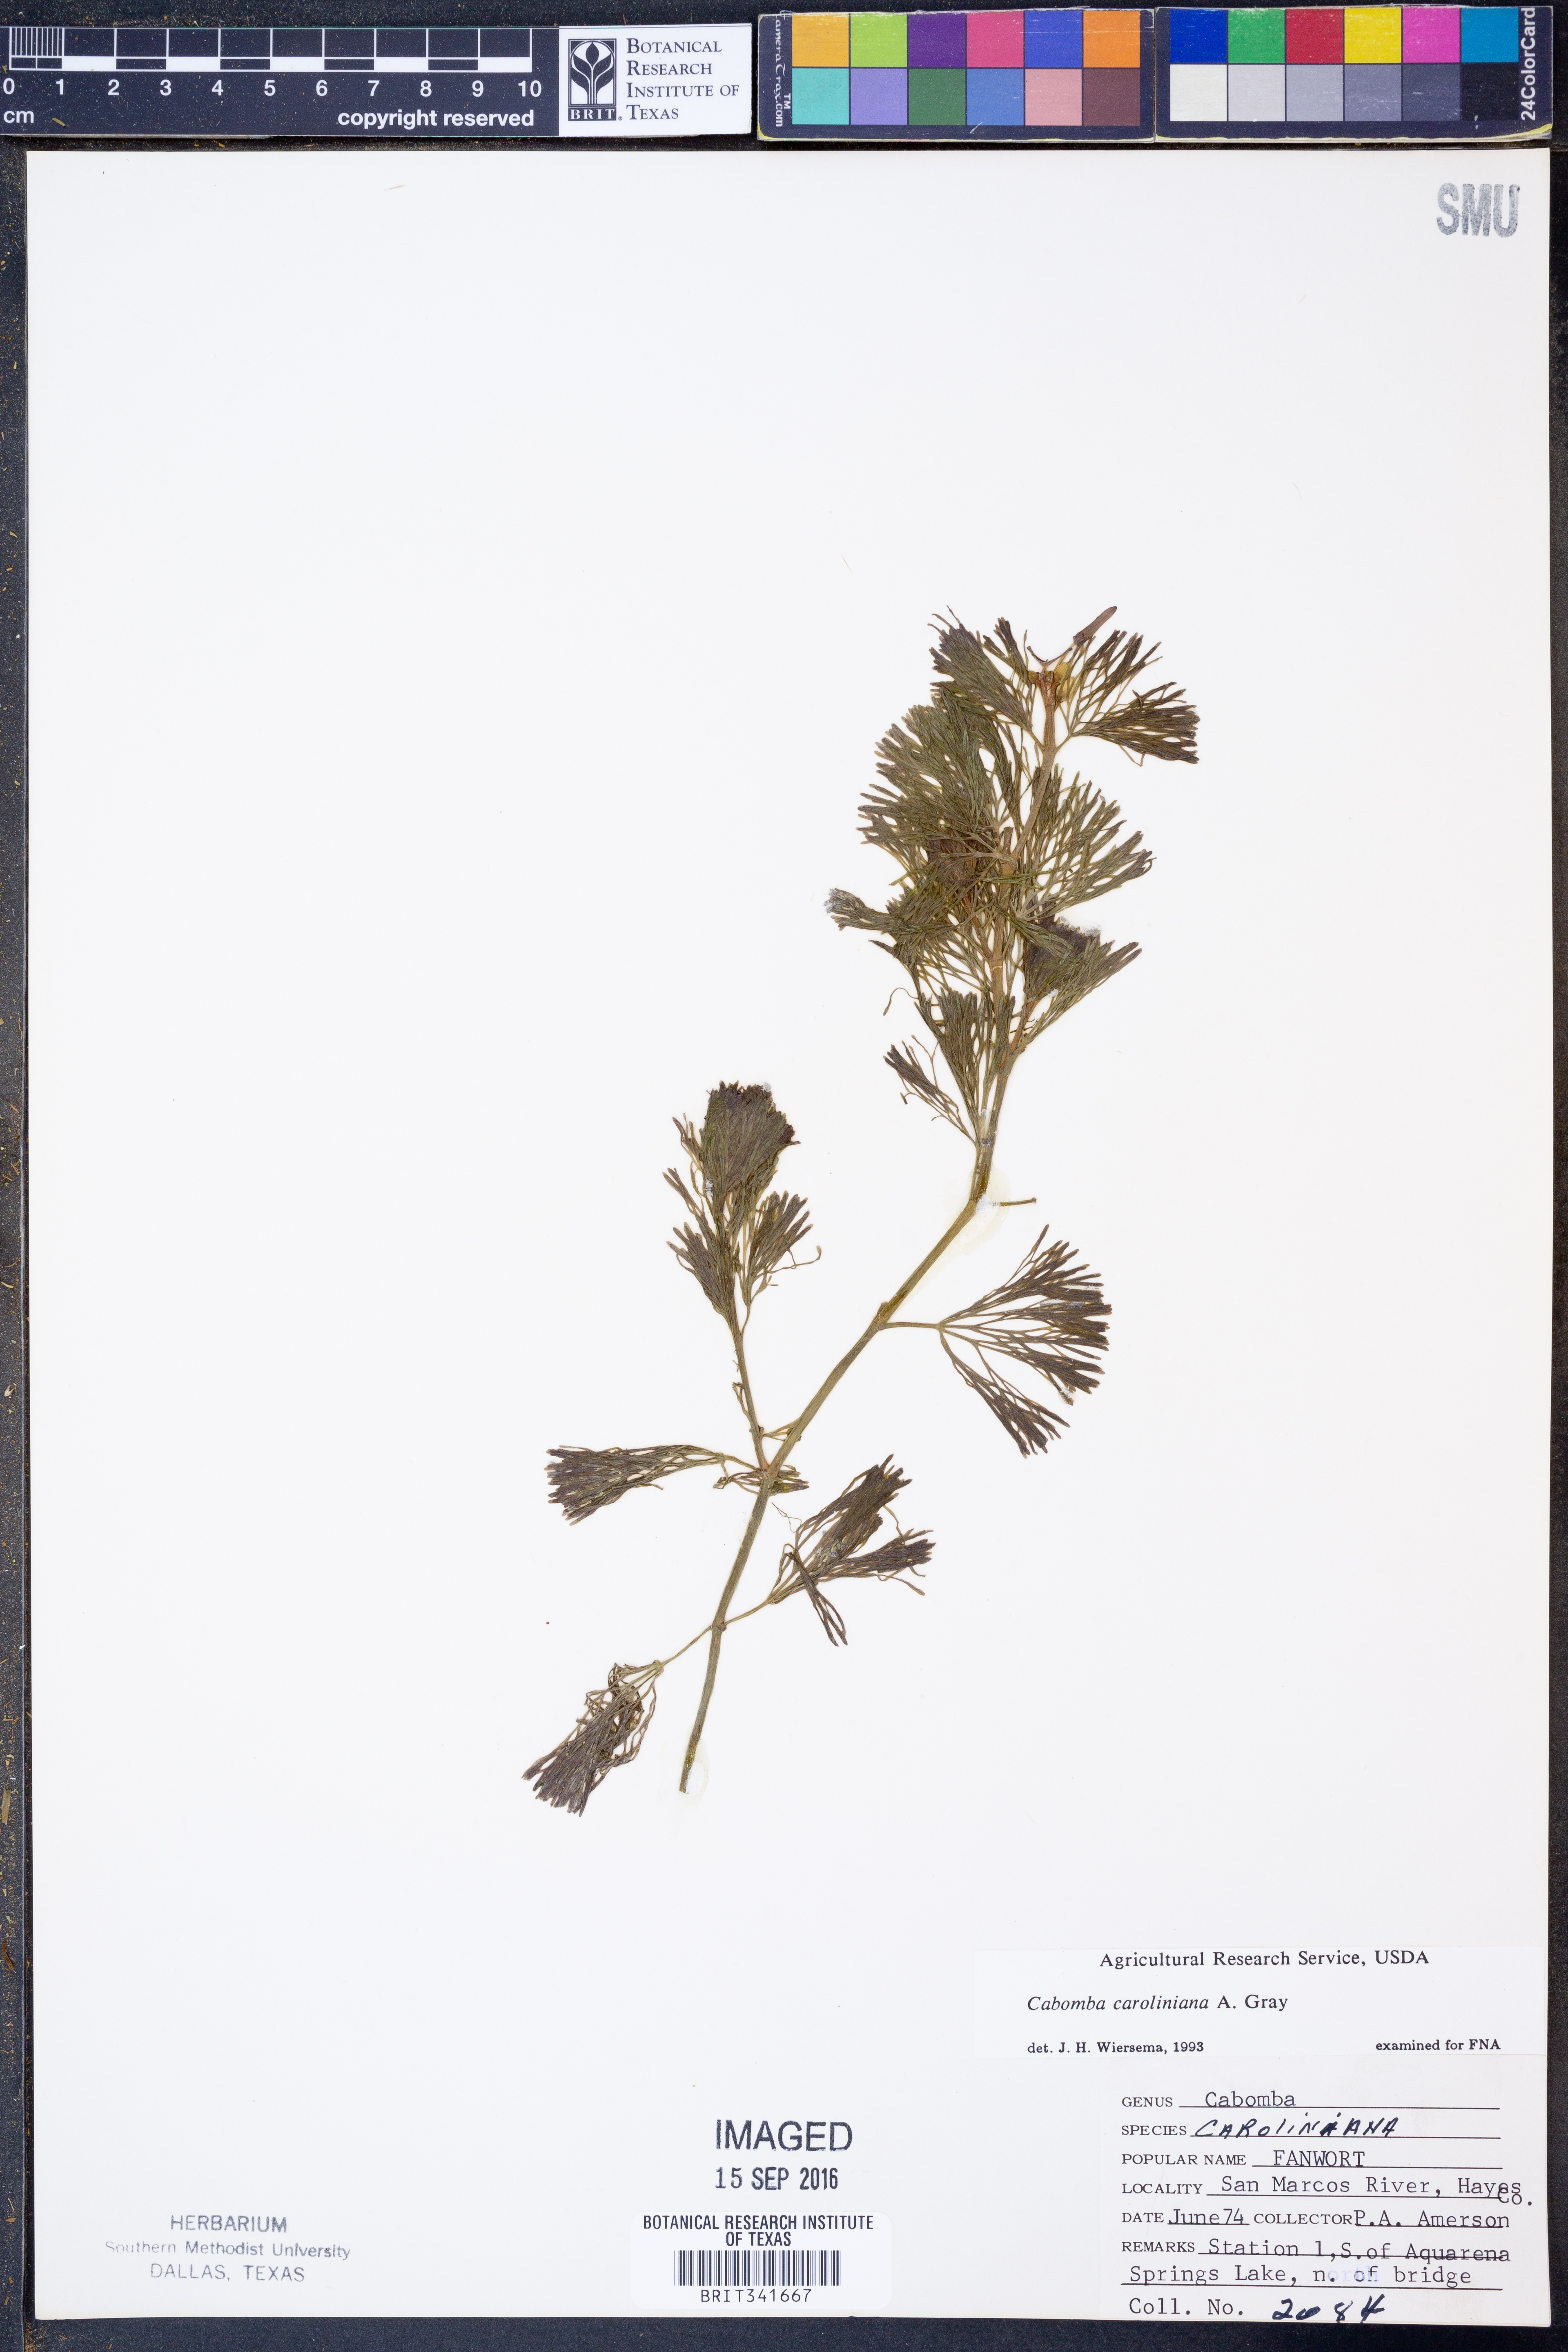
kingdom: Plantae
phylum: Tracheophyta
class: Magnoliopsida
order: Nymphaeales
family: Cabombaceae
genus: Cabomba
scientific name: Cabomba caroliniana
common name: Fanwort
